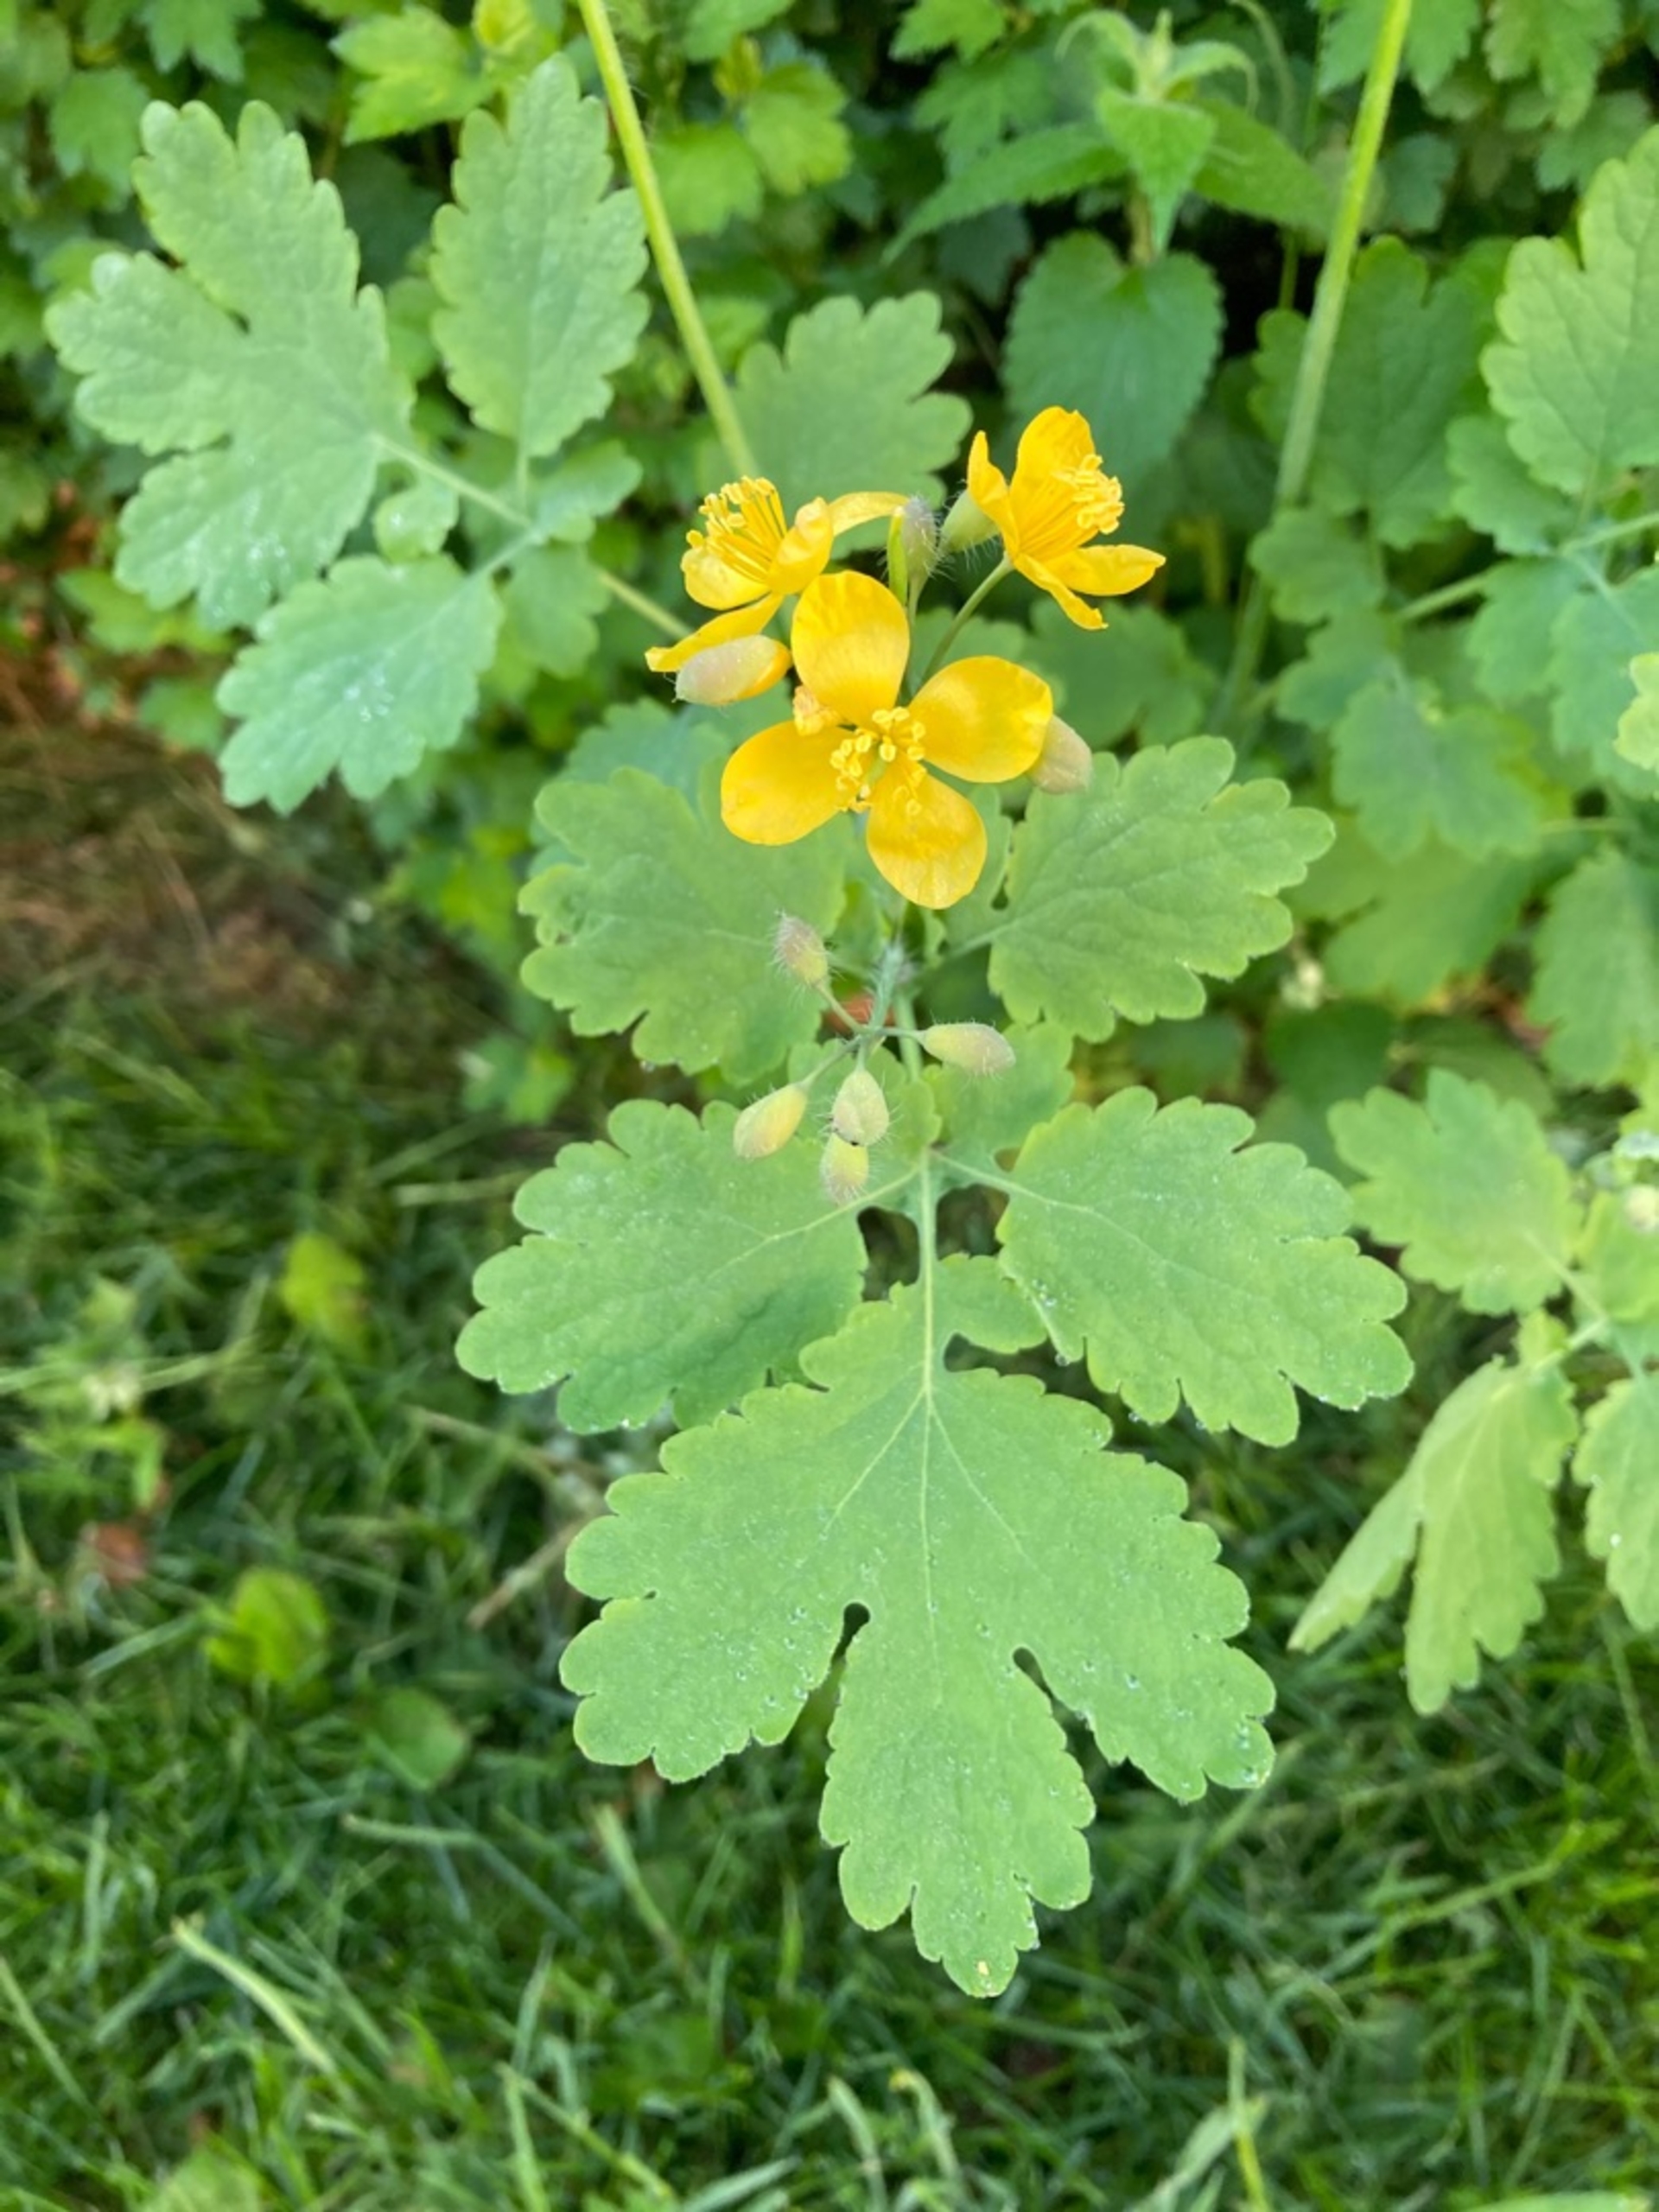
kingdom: Plantae
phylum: Tracheophyta
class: Magnoliopsida
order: Ranunculales
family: Papaveraceae
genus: Chelidonium
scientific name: Chelidonium majus
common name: Svaleurt
